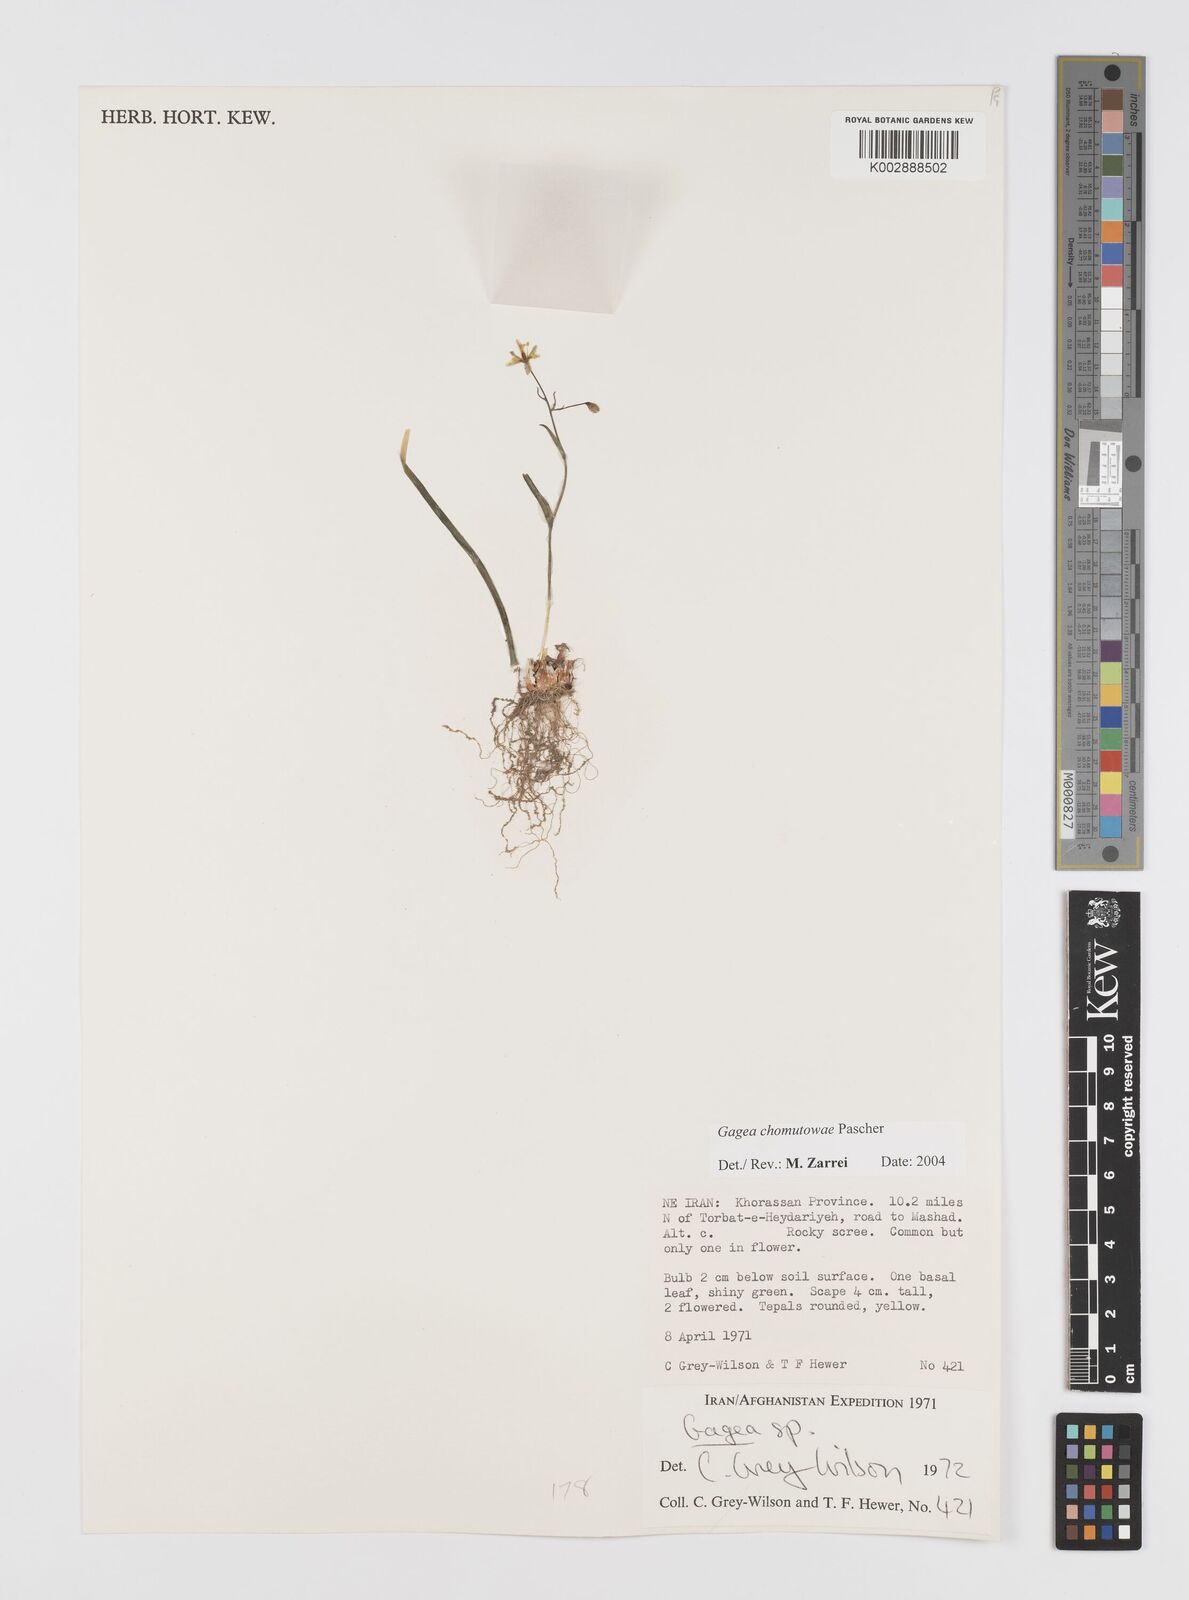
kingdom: Plantae
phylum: Tracheophyta
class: Liliopsida
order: Liliales
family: Liliaceae
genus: Gagea
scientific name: Gagea chomutovae
